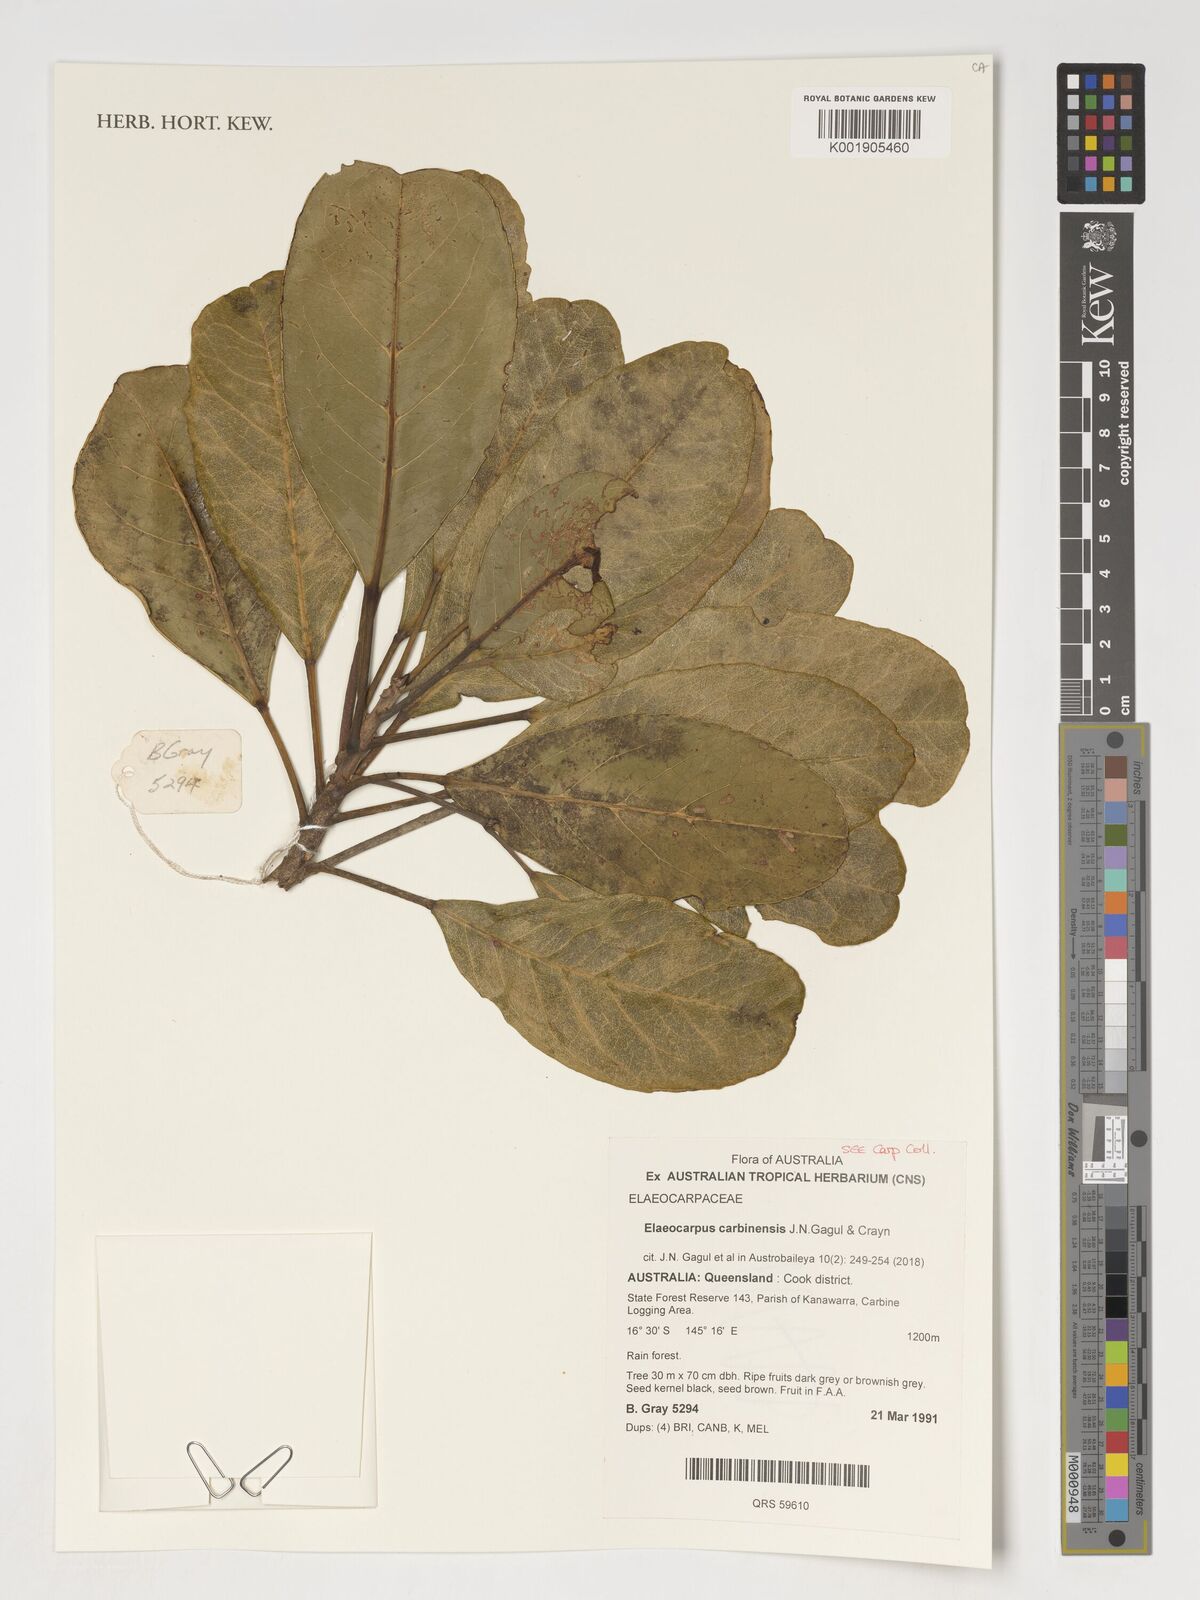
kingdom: Plantae
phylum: Tracheophyta
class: Magnoliopsida
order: Oxalidales
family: Elaeocarpaceae
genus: Elaeocarpus
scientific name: Elaeocarpus carbinensis
